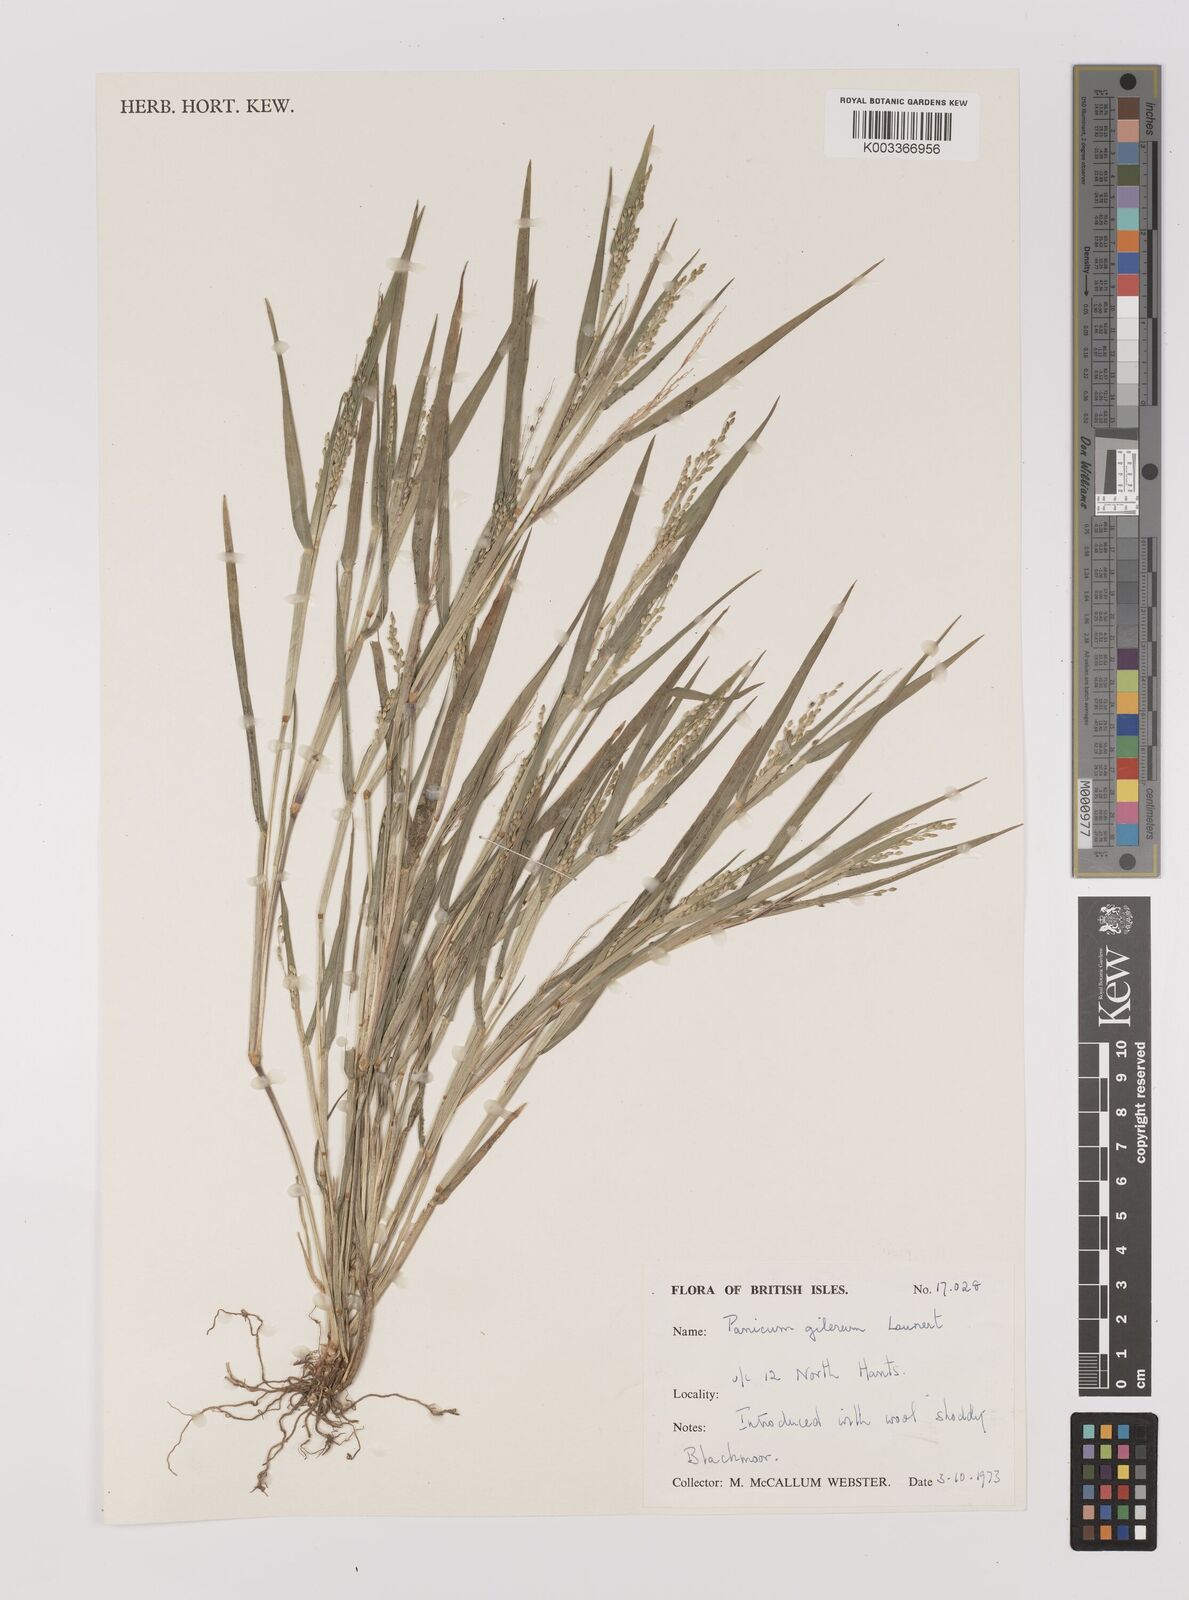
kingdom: Plantae
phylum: Tracheophyta
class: Liliopsida
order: Poales
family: Poaceae
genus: Panicum
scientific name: Panicum gilvum
